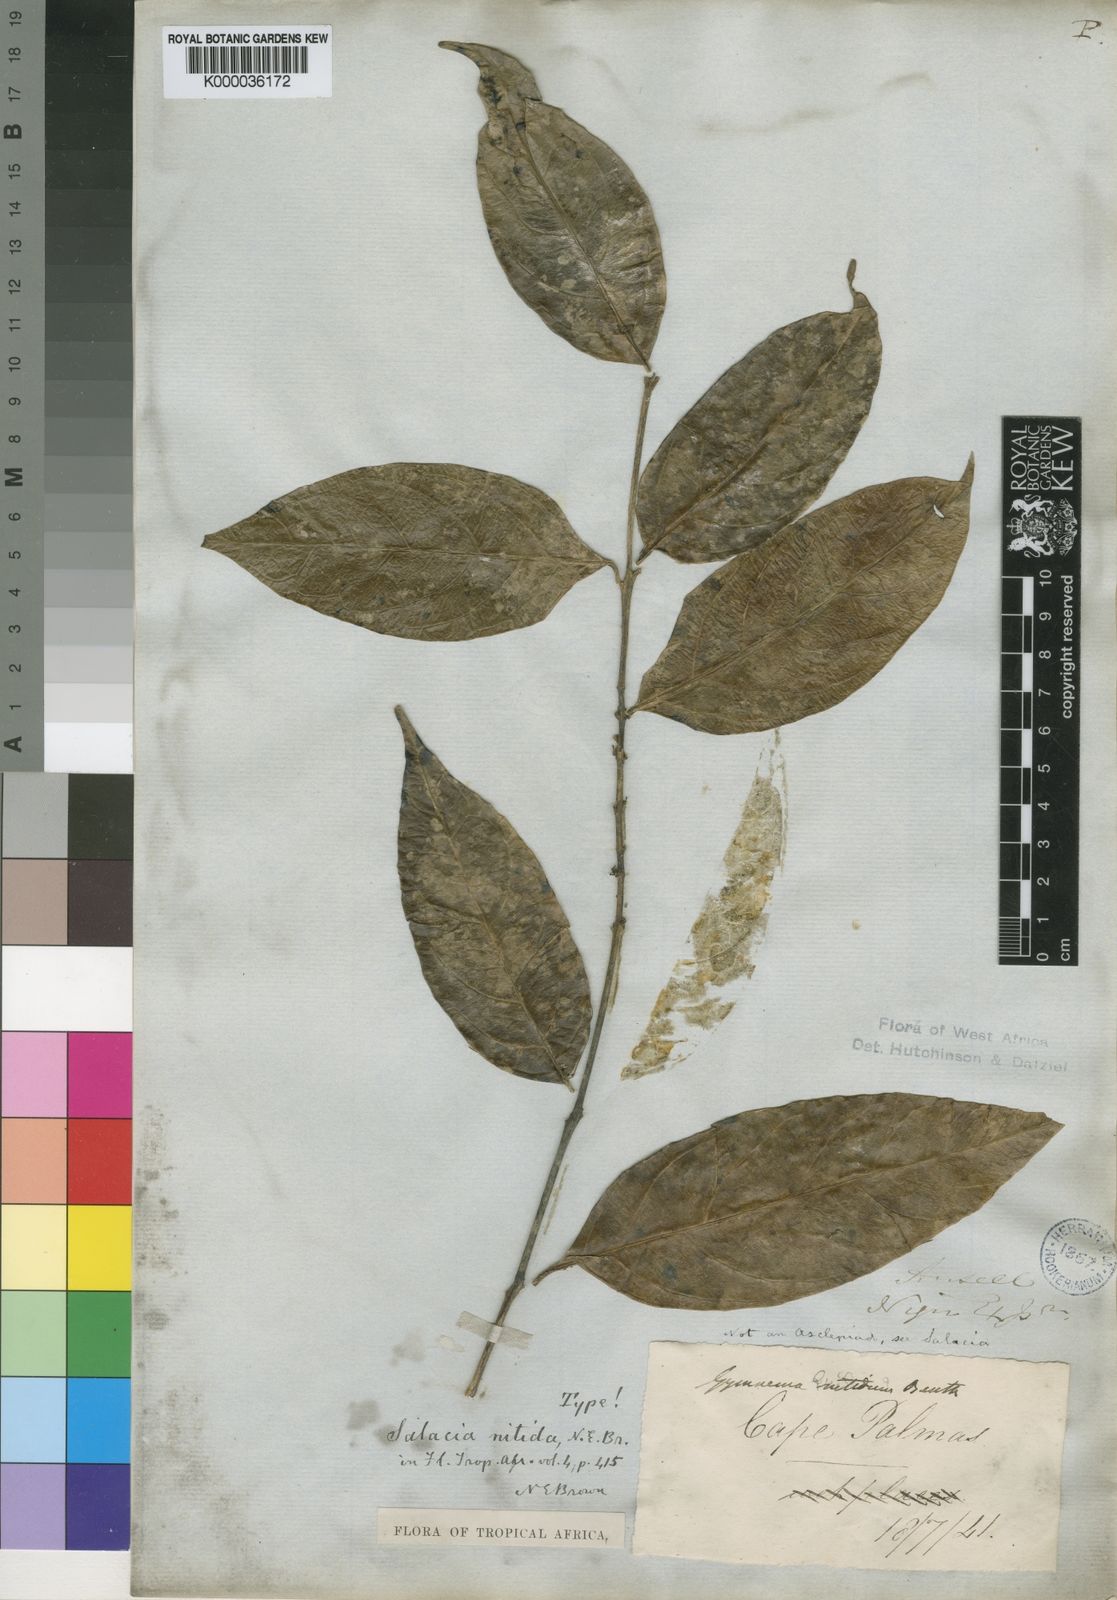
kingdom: Plantae
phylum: Tracheophyta
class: Magnoliopsida
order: Celastrales
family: Celastraceae
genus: Salacia
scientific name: Salacia nitida
